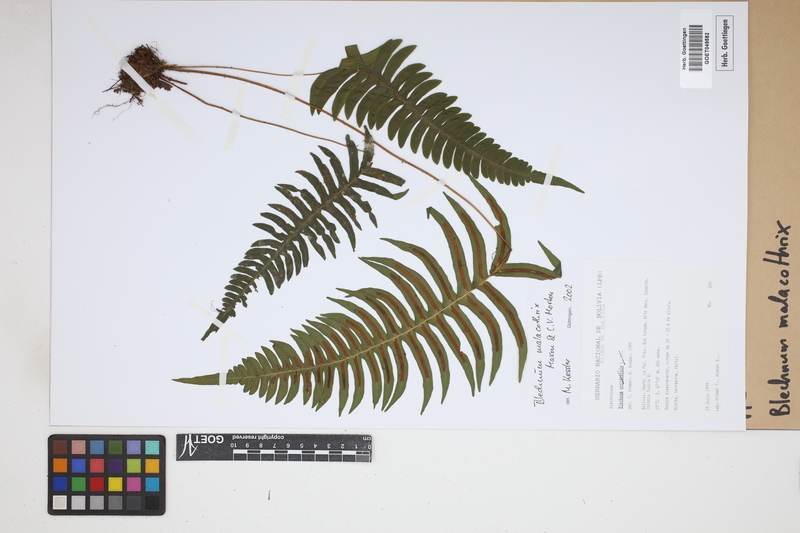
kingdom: Plantae
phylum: Tracheophyta
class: Polypodiopsida
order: Polypodiales
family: Blechnaceae
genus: Blechnum
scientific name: Blechnum malacothrix
